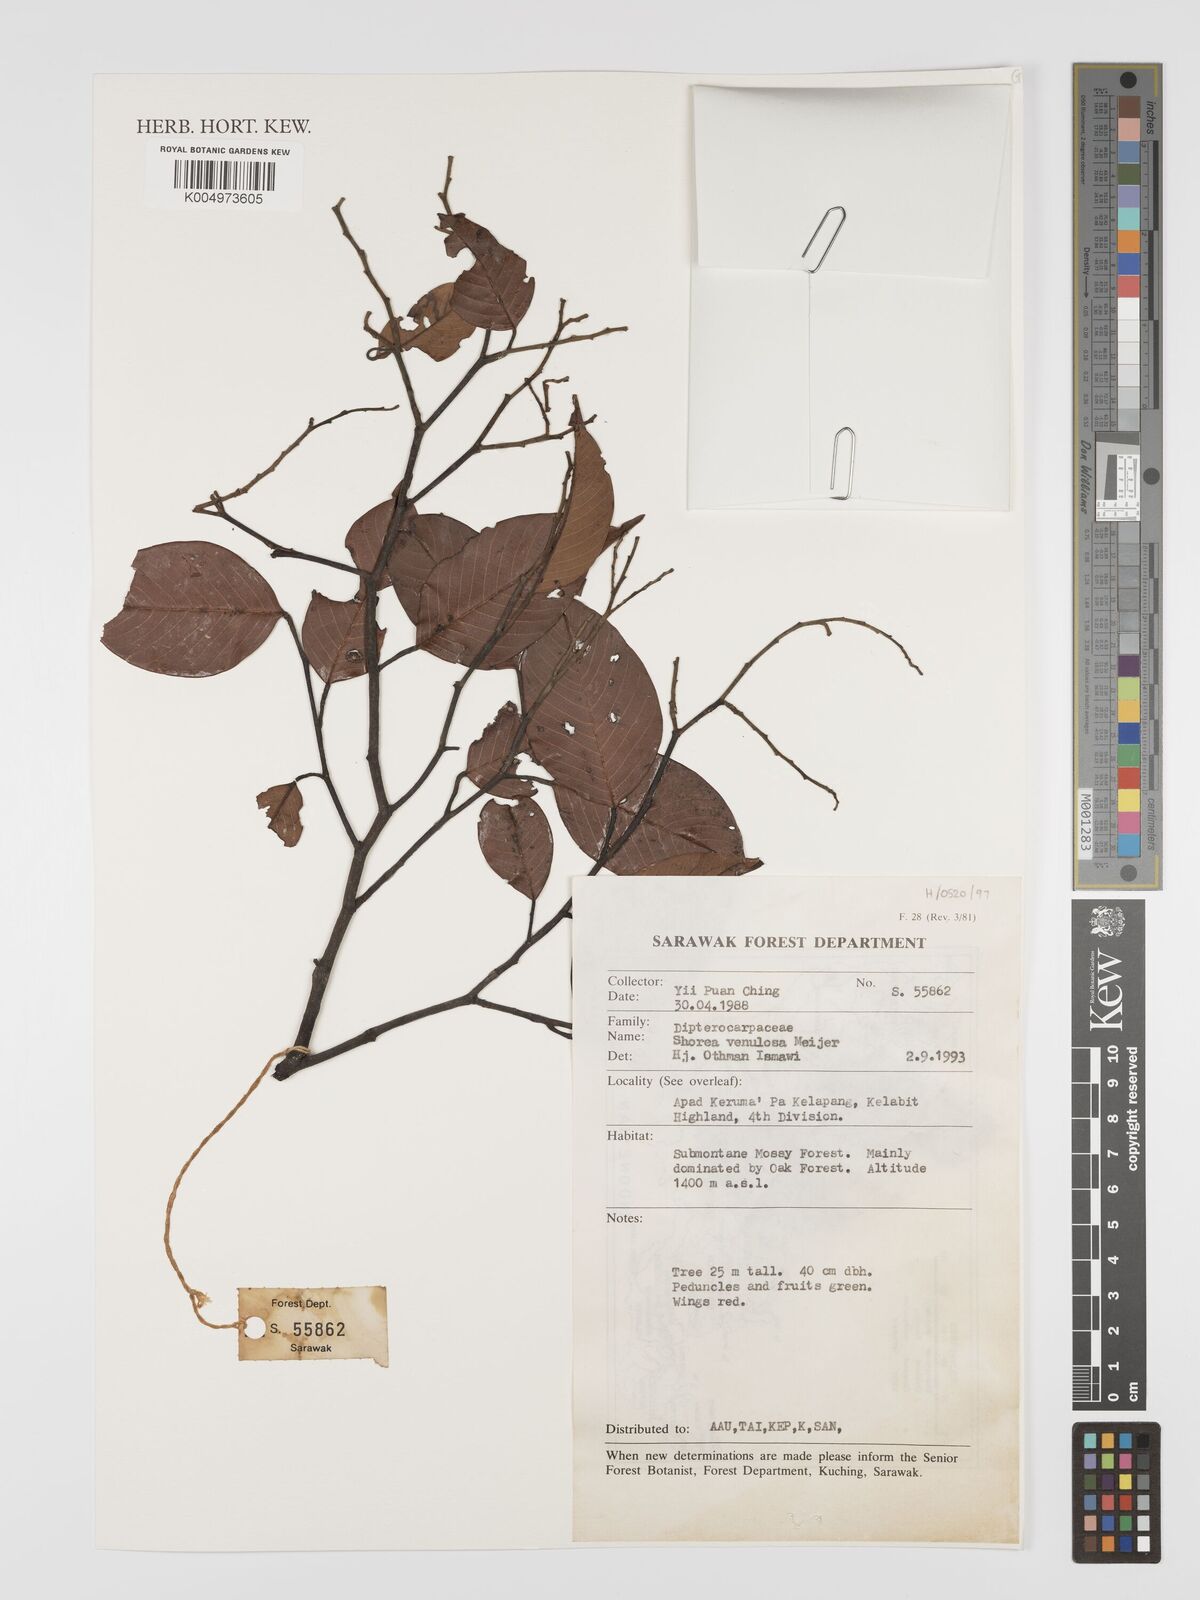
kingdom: Plantae
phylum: Tracheophyta
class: Magnoliopsida
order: Malvales
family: Dipterocarpaceae
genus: Shorea
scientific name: Shorea venulosa
